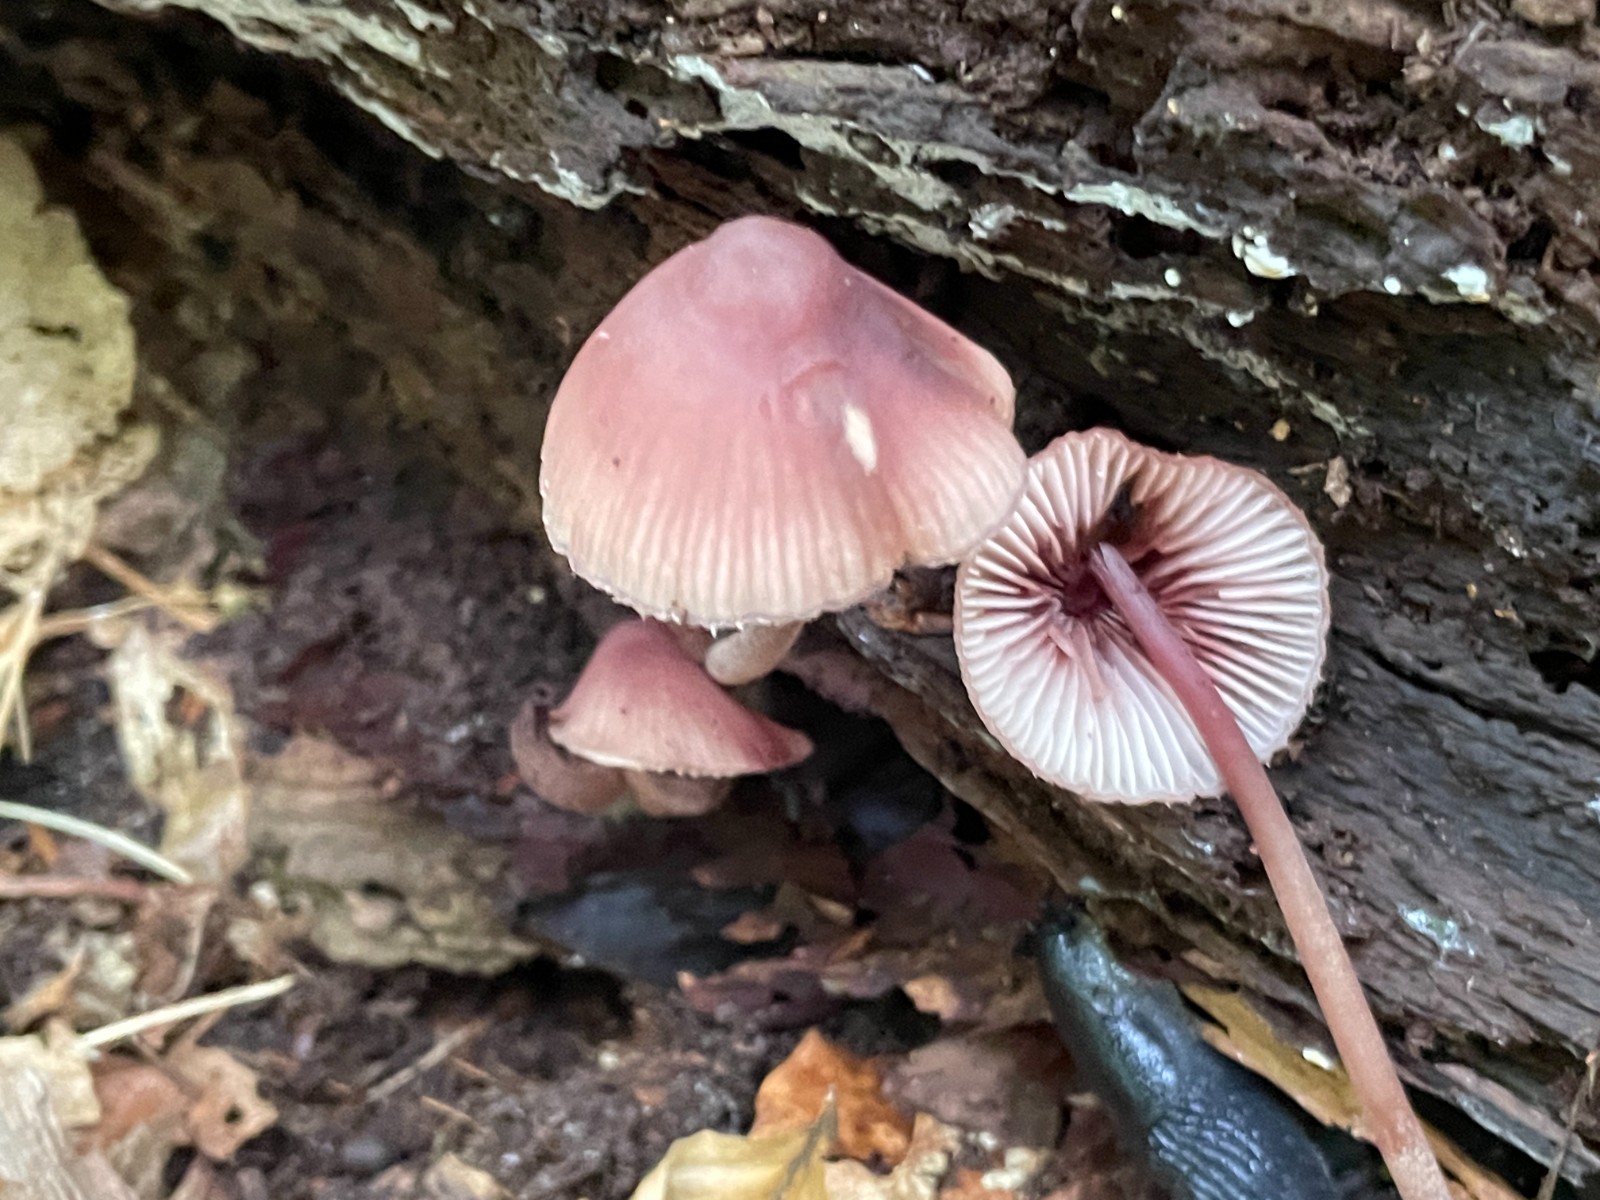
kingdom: Fungi
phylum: Basidiomycota
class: Agaricomycetes
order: Agaricales
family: Mycenaceae
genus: Mycena
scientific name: Mycena haematopus
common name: blødende huesvamp
